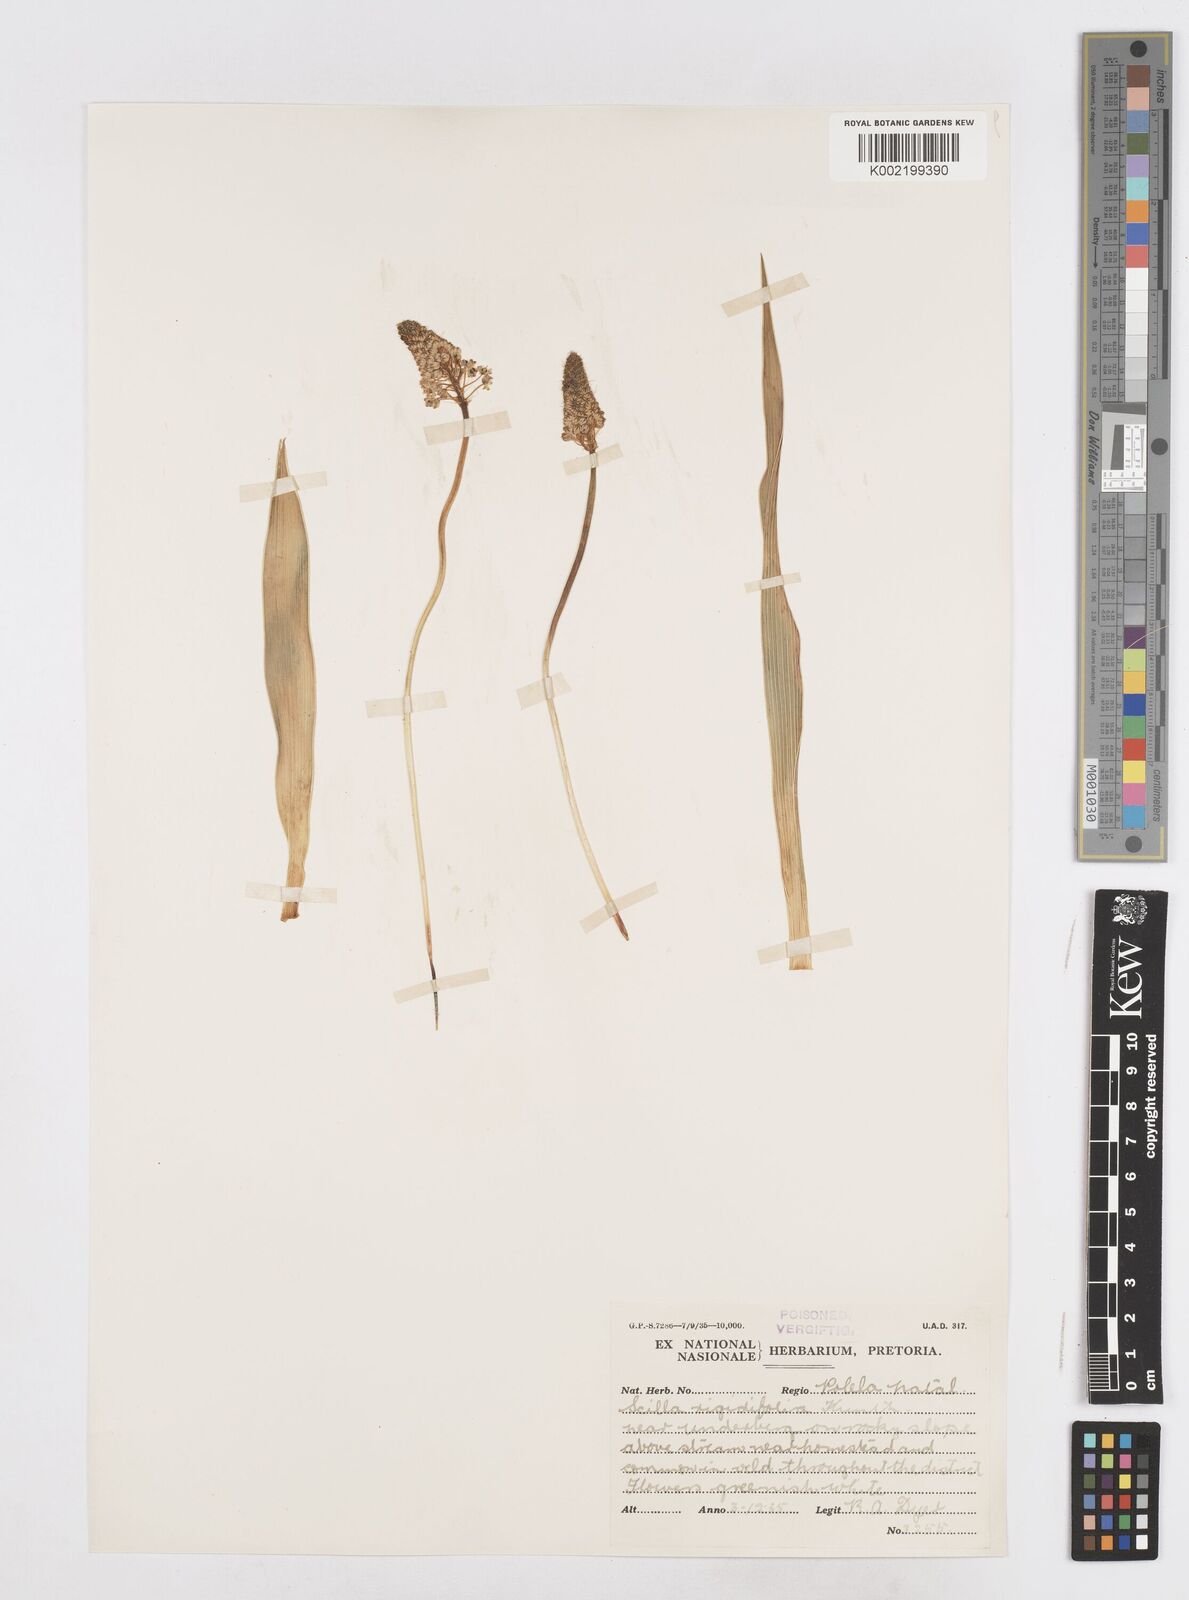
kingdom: Plantae
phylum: Tracheophyta
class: Liliopsida
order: Asparagales
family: Asparagaceae
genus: Schizocarphus
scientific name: Schizocarphus nervosus
